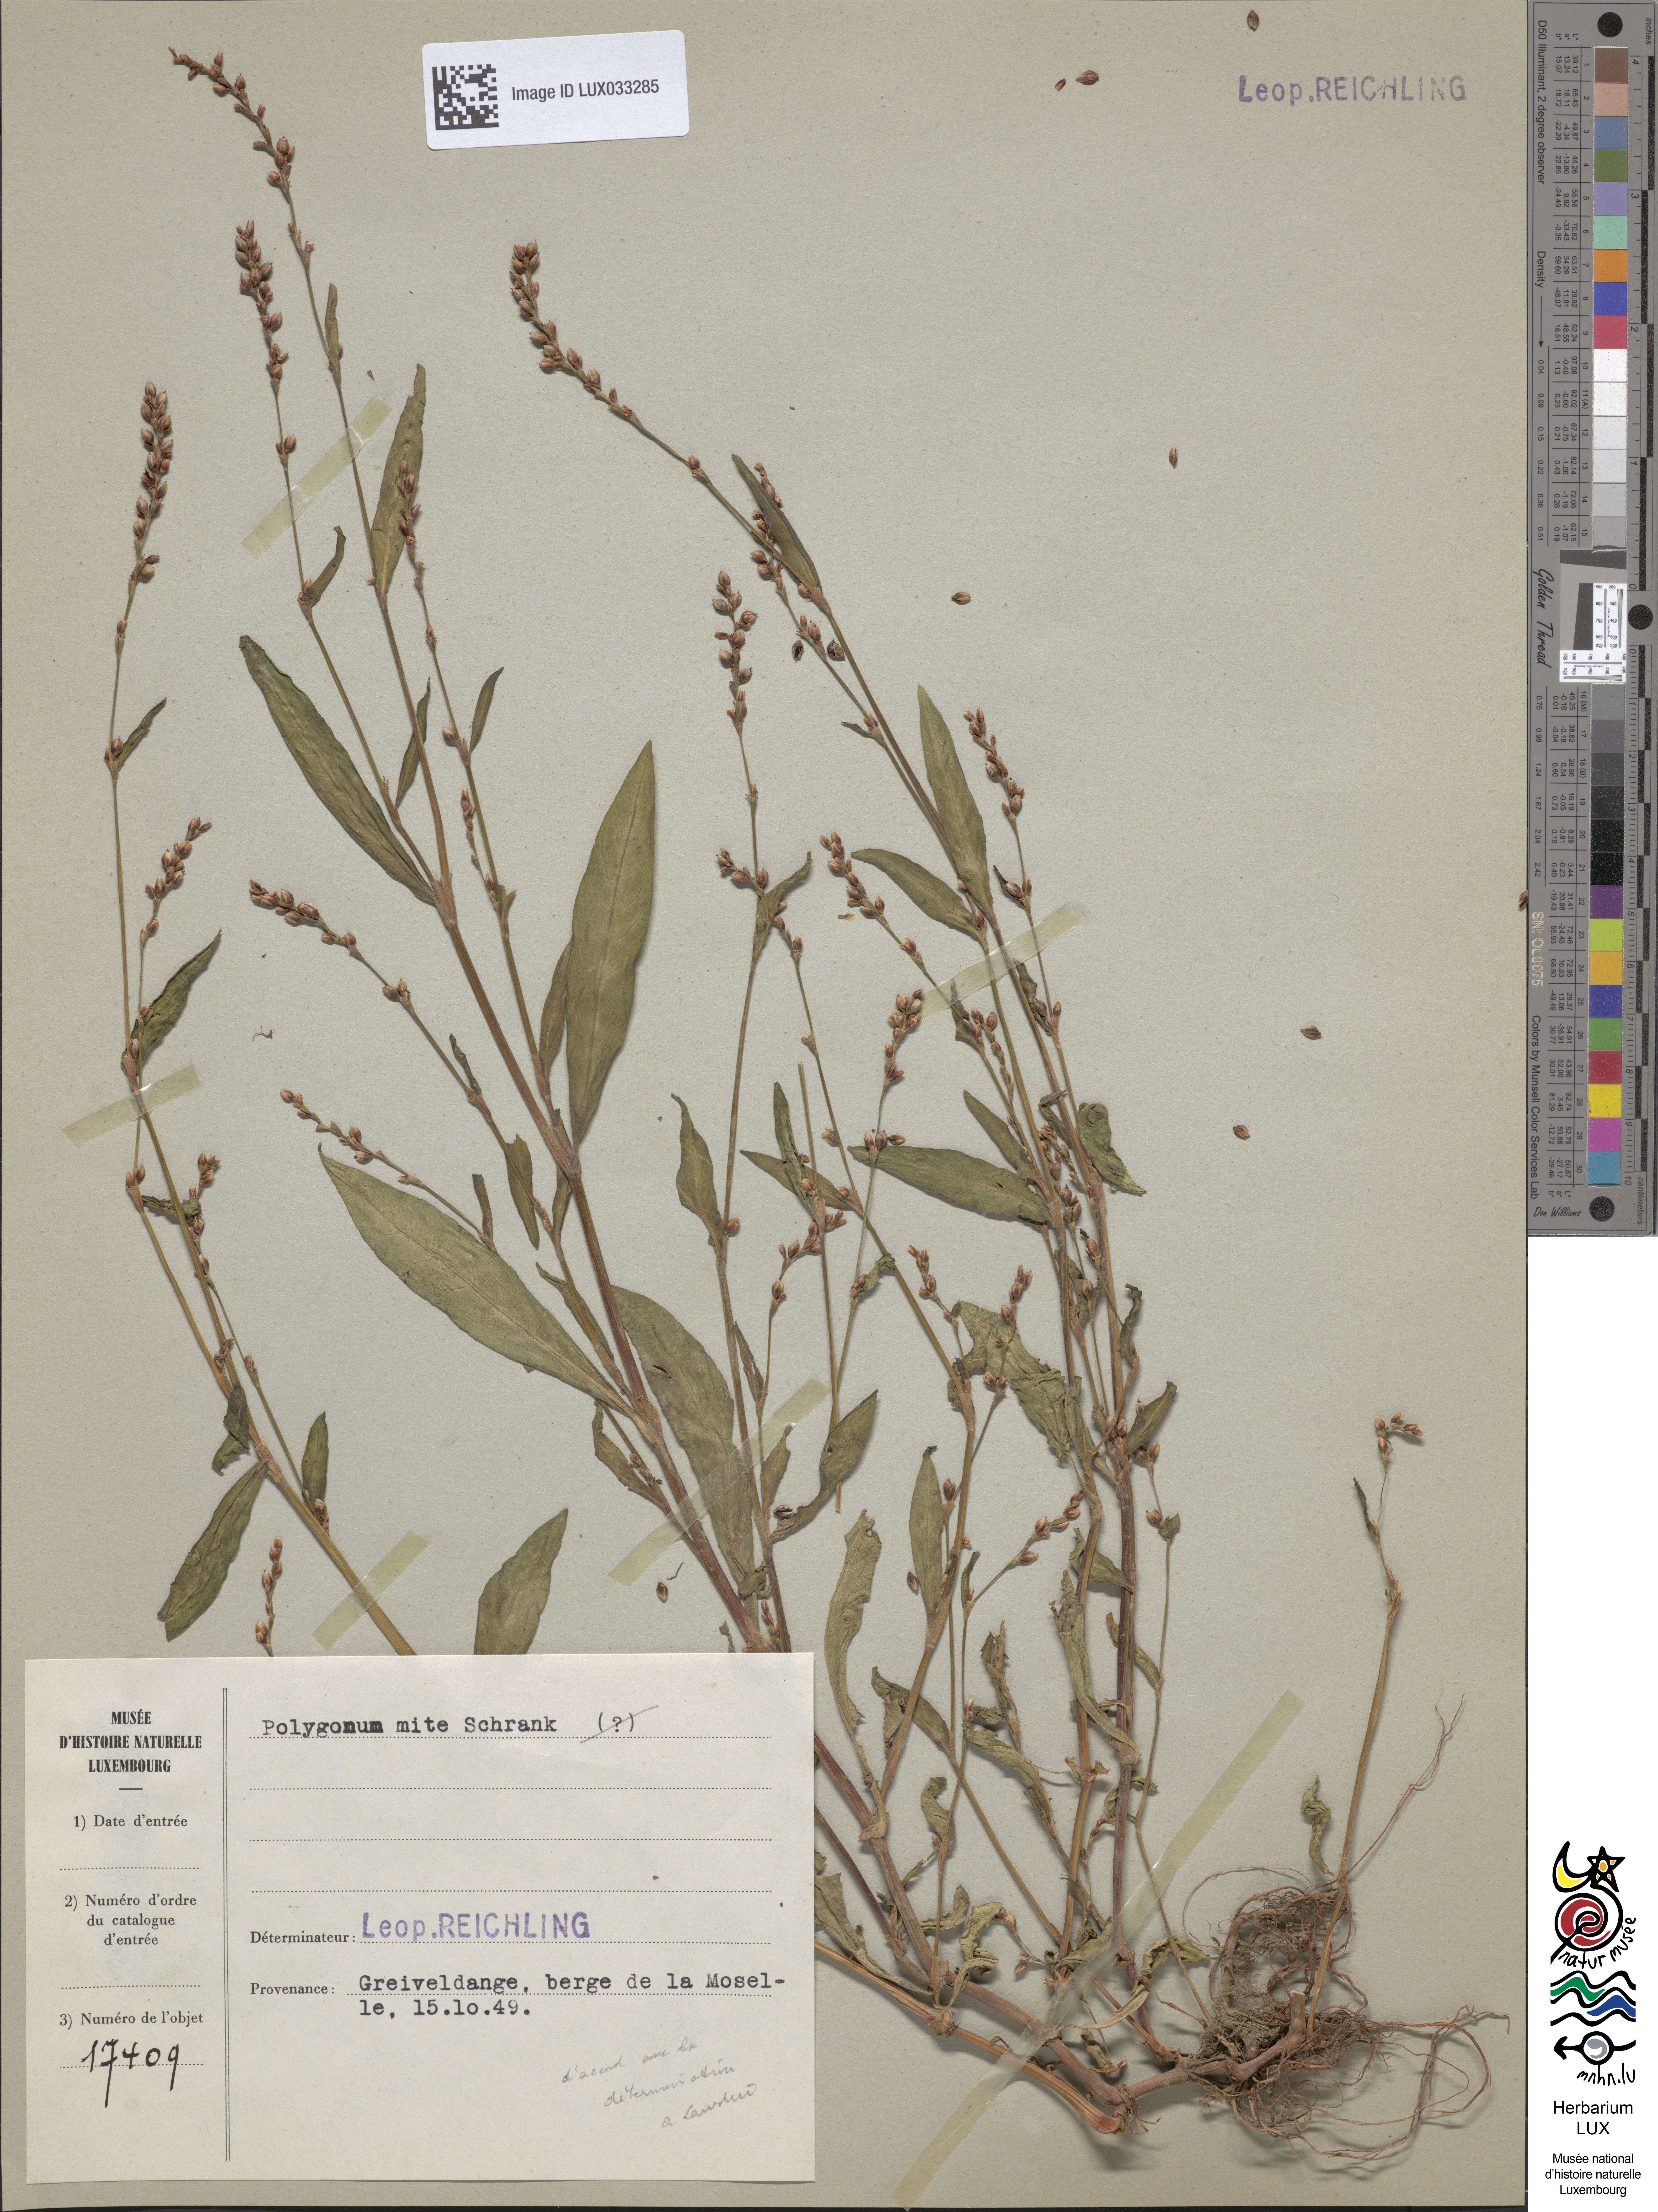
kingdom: Plantae
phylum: Tracheophyta
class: Magnoliopsida
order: Caryophyllales
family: Polygonaceae
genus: Persicaria
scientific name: Persicaria mitis
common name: Tasteless water-pepper
